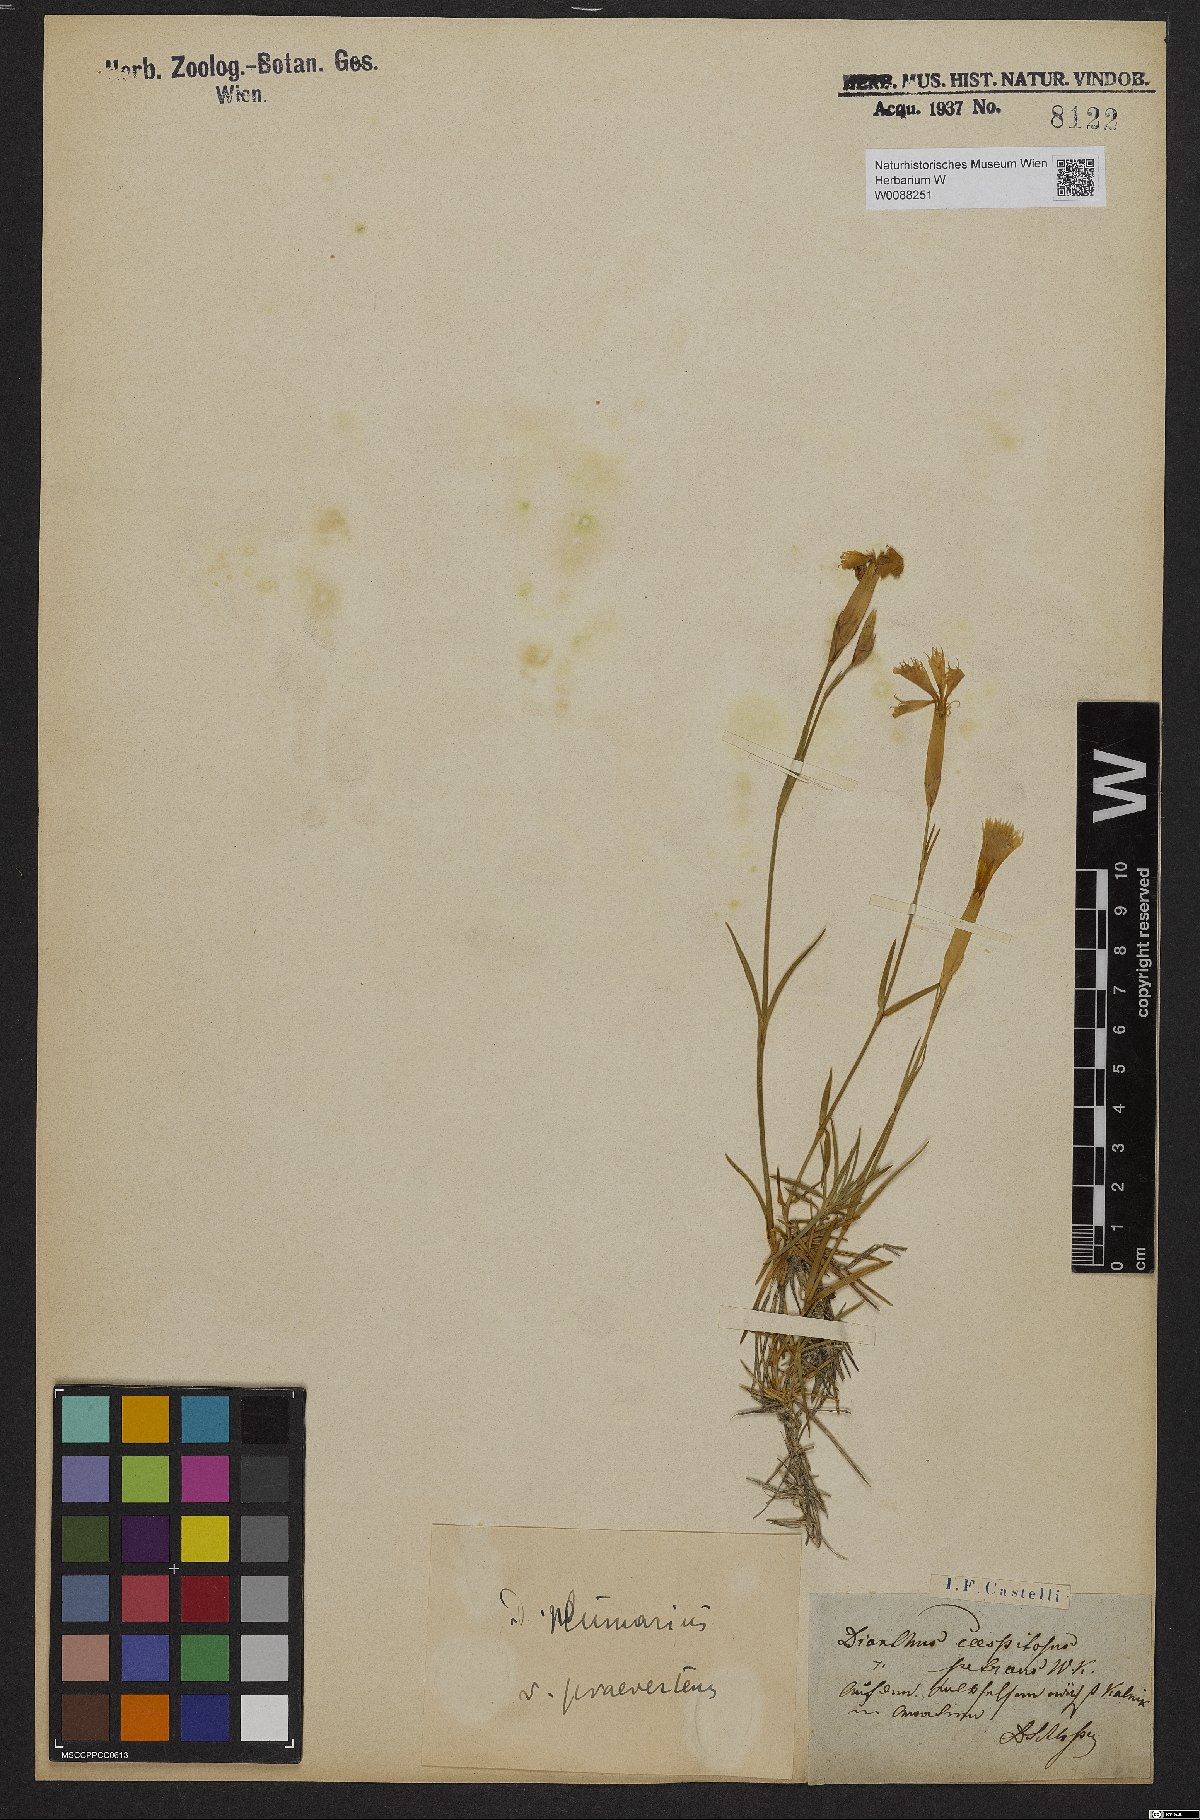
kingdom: Plantae
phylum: Tracheophyta
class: Magnoliopsida
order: Caryophyllales
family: Caryophyllaceae
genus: Dianthus
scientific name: Dianthus plumarius
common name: Pink
